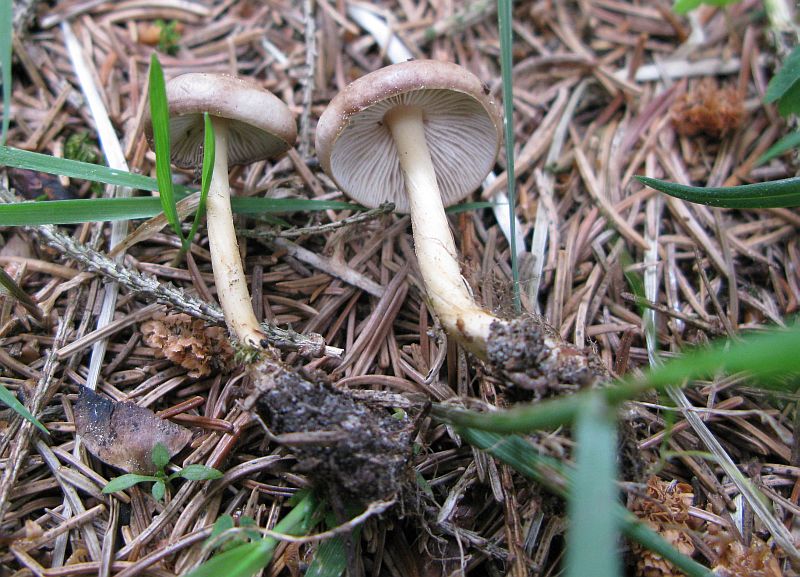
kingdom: Fungi
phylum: Basidiomycota
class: Agaricomycetes
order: Agaricales
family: Omphalotaceae
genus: Gymnopus
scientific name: Gymnopus aquosus
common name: bleg fladhat
